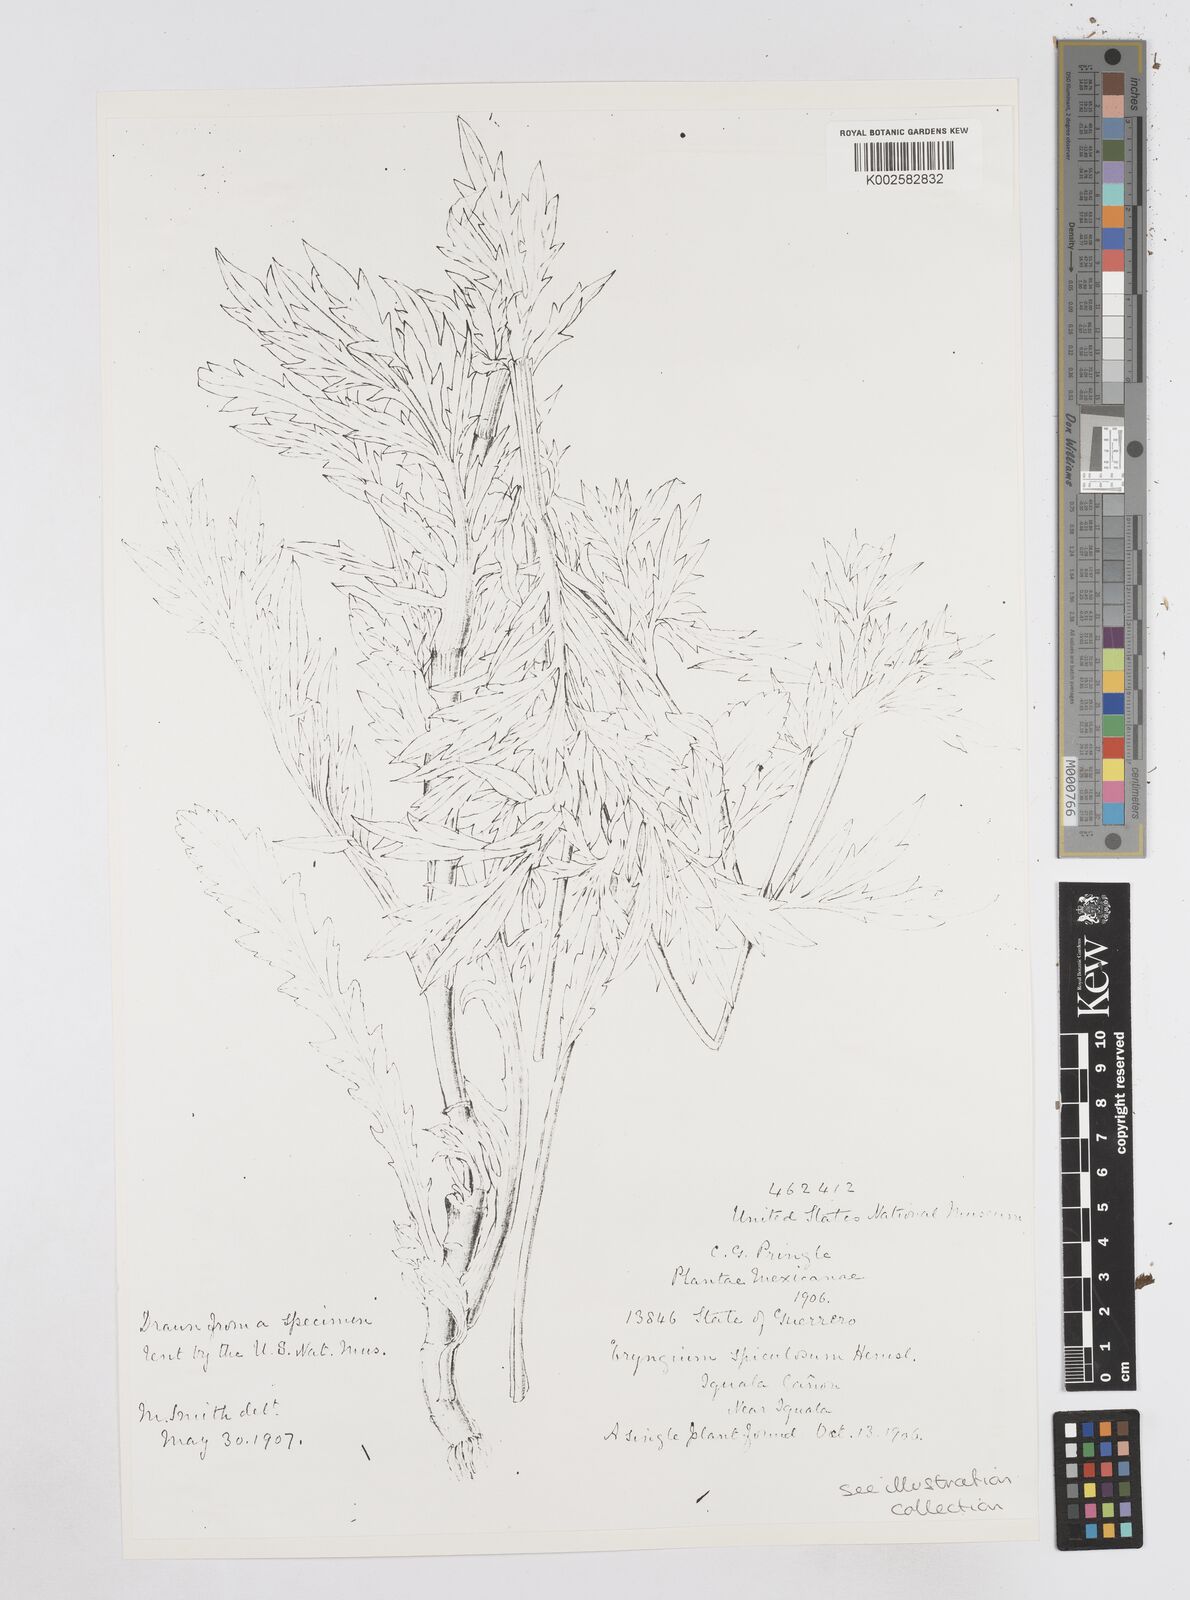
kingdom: Plantae
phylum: Tracheophyta
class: Magnoliopsida
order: Apiales
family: Apiaceae
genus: Eryngium
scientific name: Eryngium haenkei
